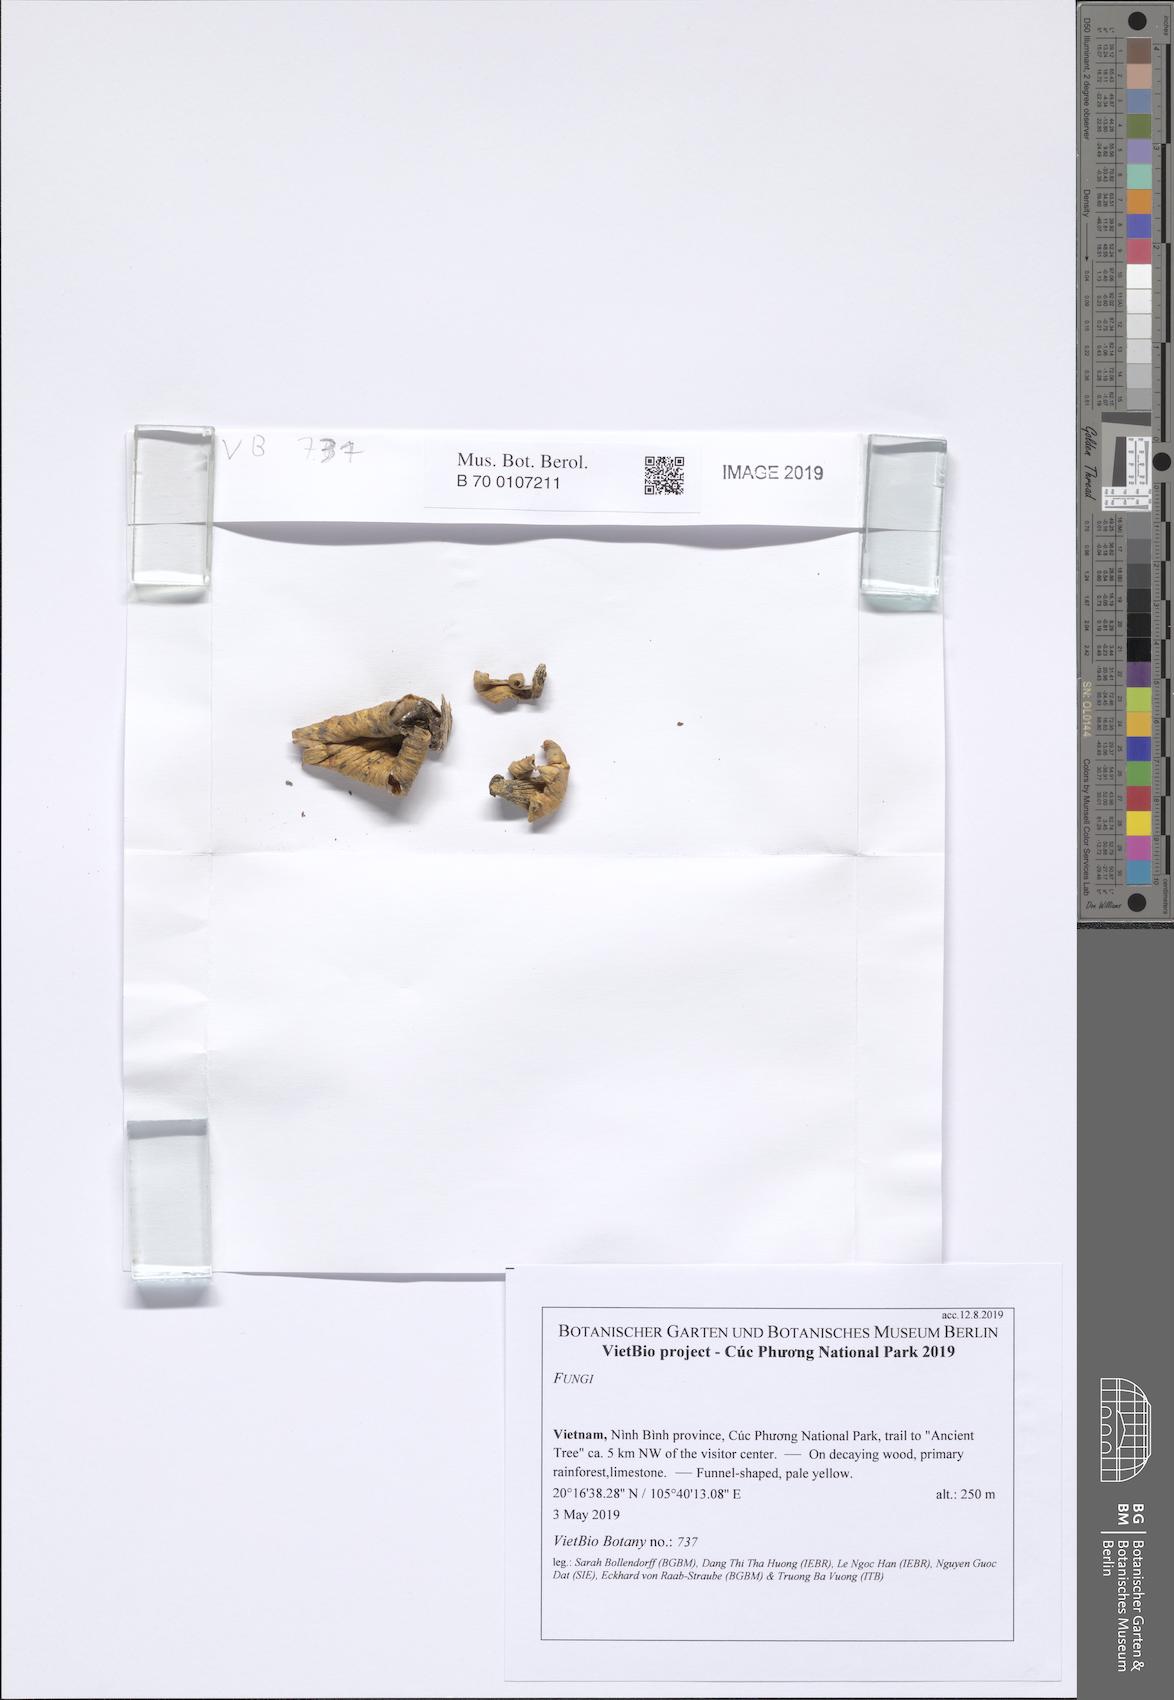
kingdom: Fungi
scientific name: Fungi
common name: Fungi
